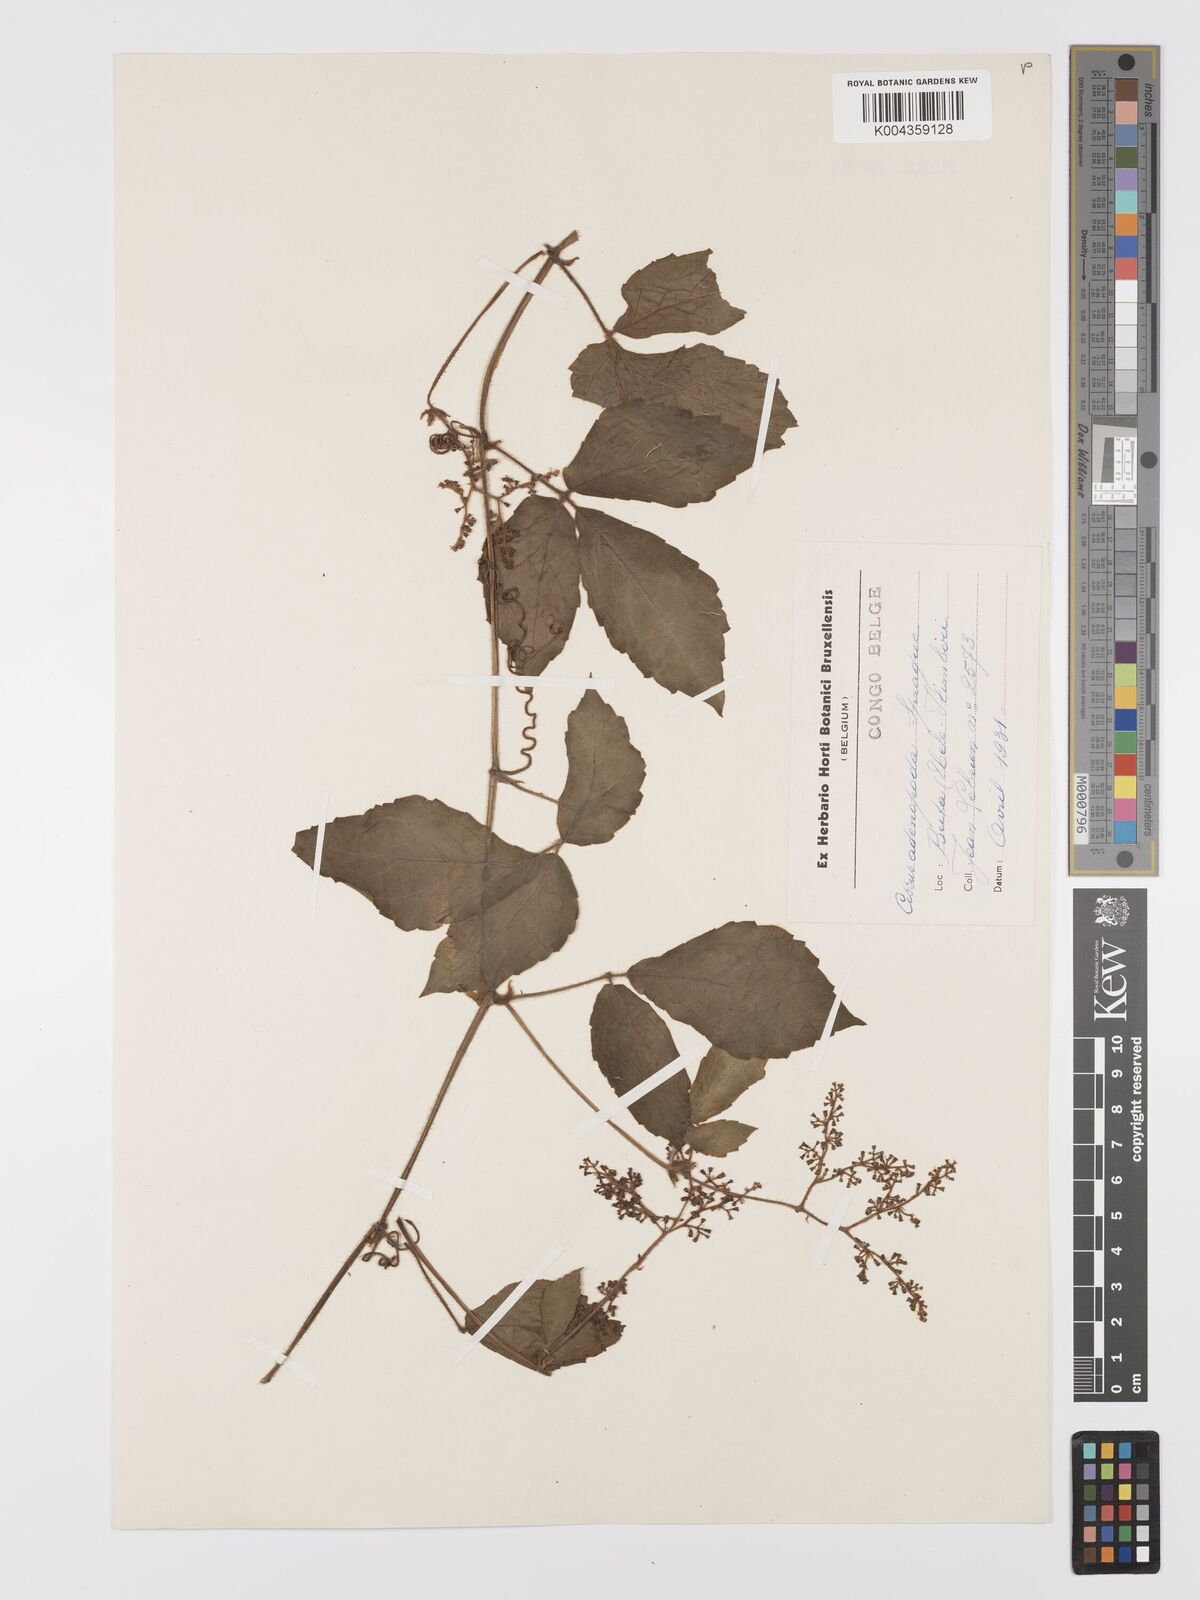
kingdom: Plantae
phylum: Tracheophyta
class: Magnoliopsida
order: Vitales
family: Vitaceae
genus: Cyphostemma
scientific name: Cyphostemma adenopodum
